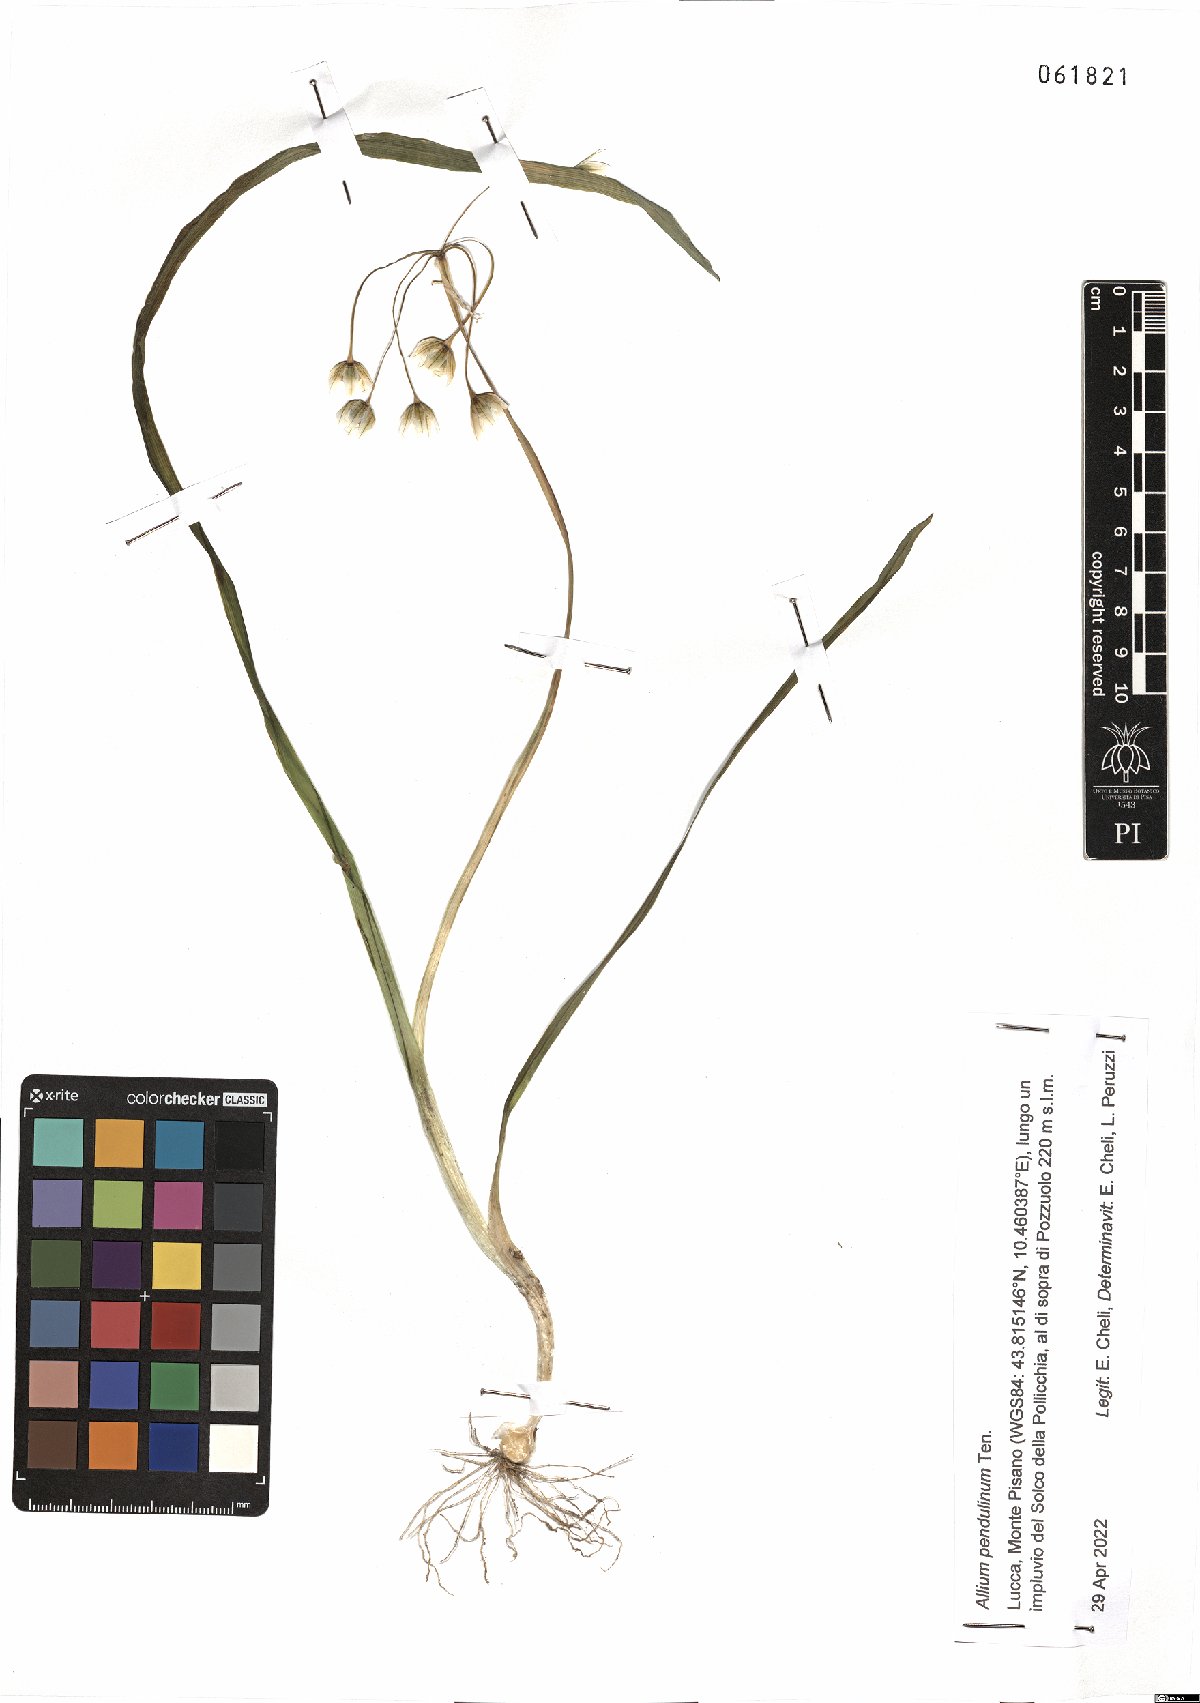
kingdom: Plantae
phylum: Tracheophyta
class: Liliopsida
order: Asparagales
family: Amaryllidaceae
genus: Allium
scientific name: Allium pendulinum
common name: Italian garlic
